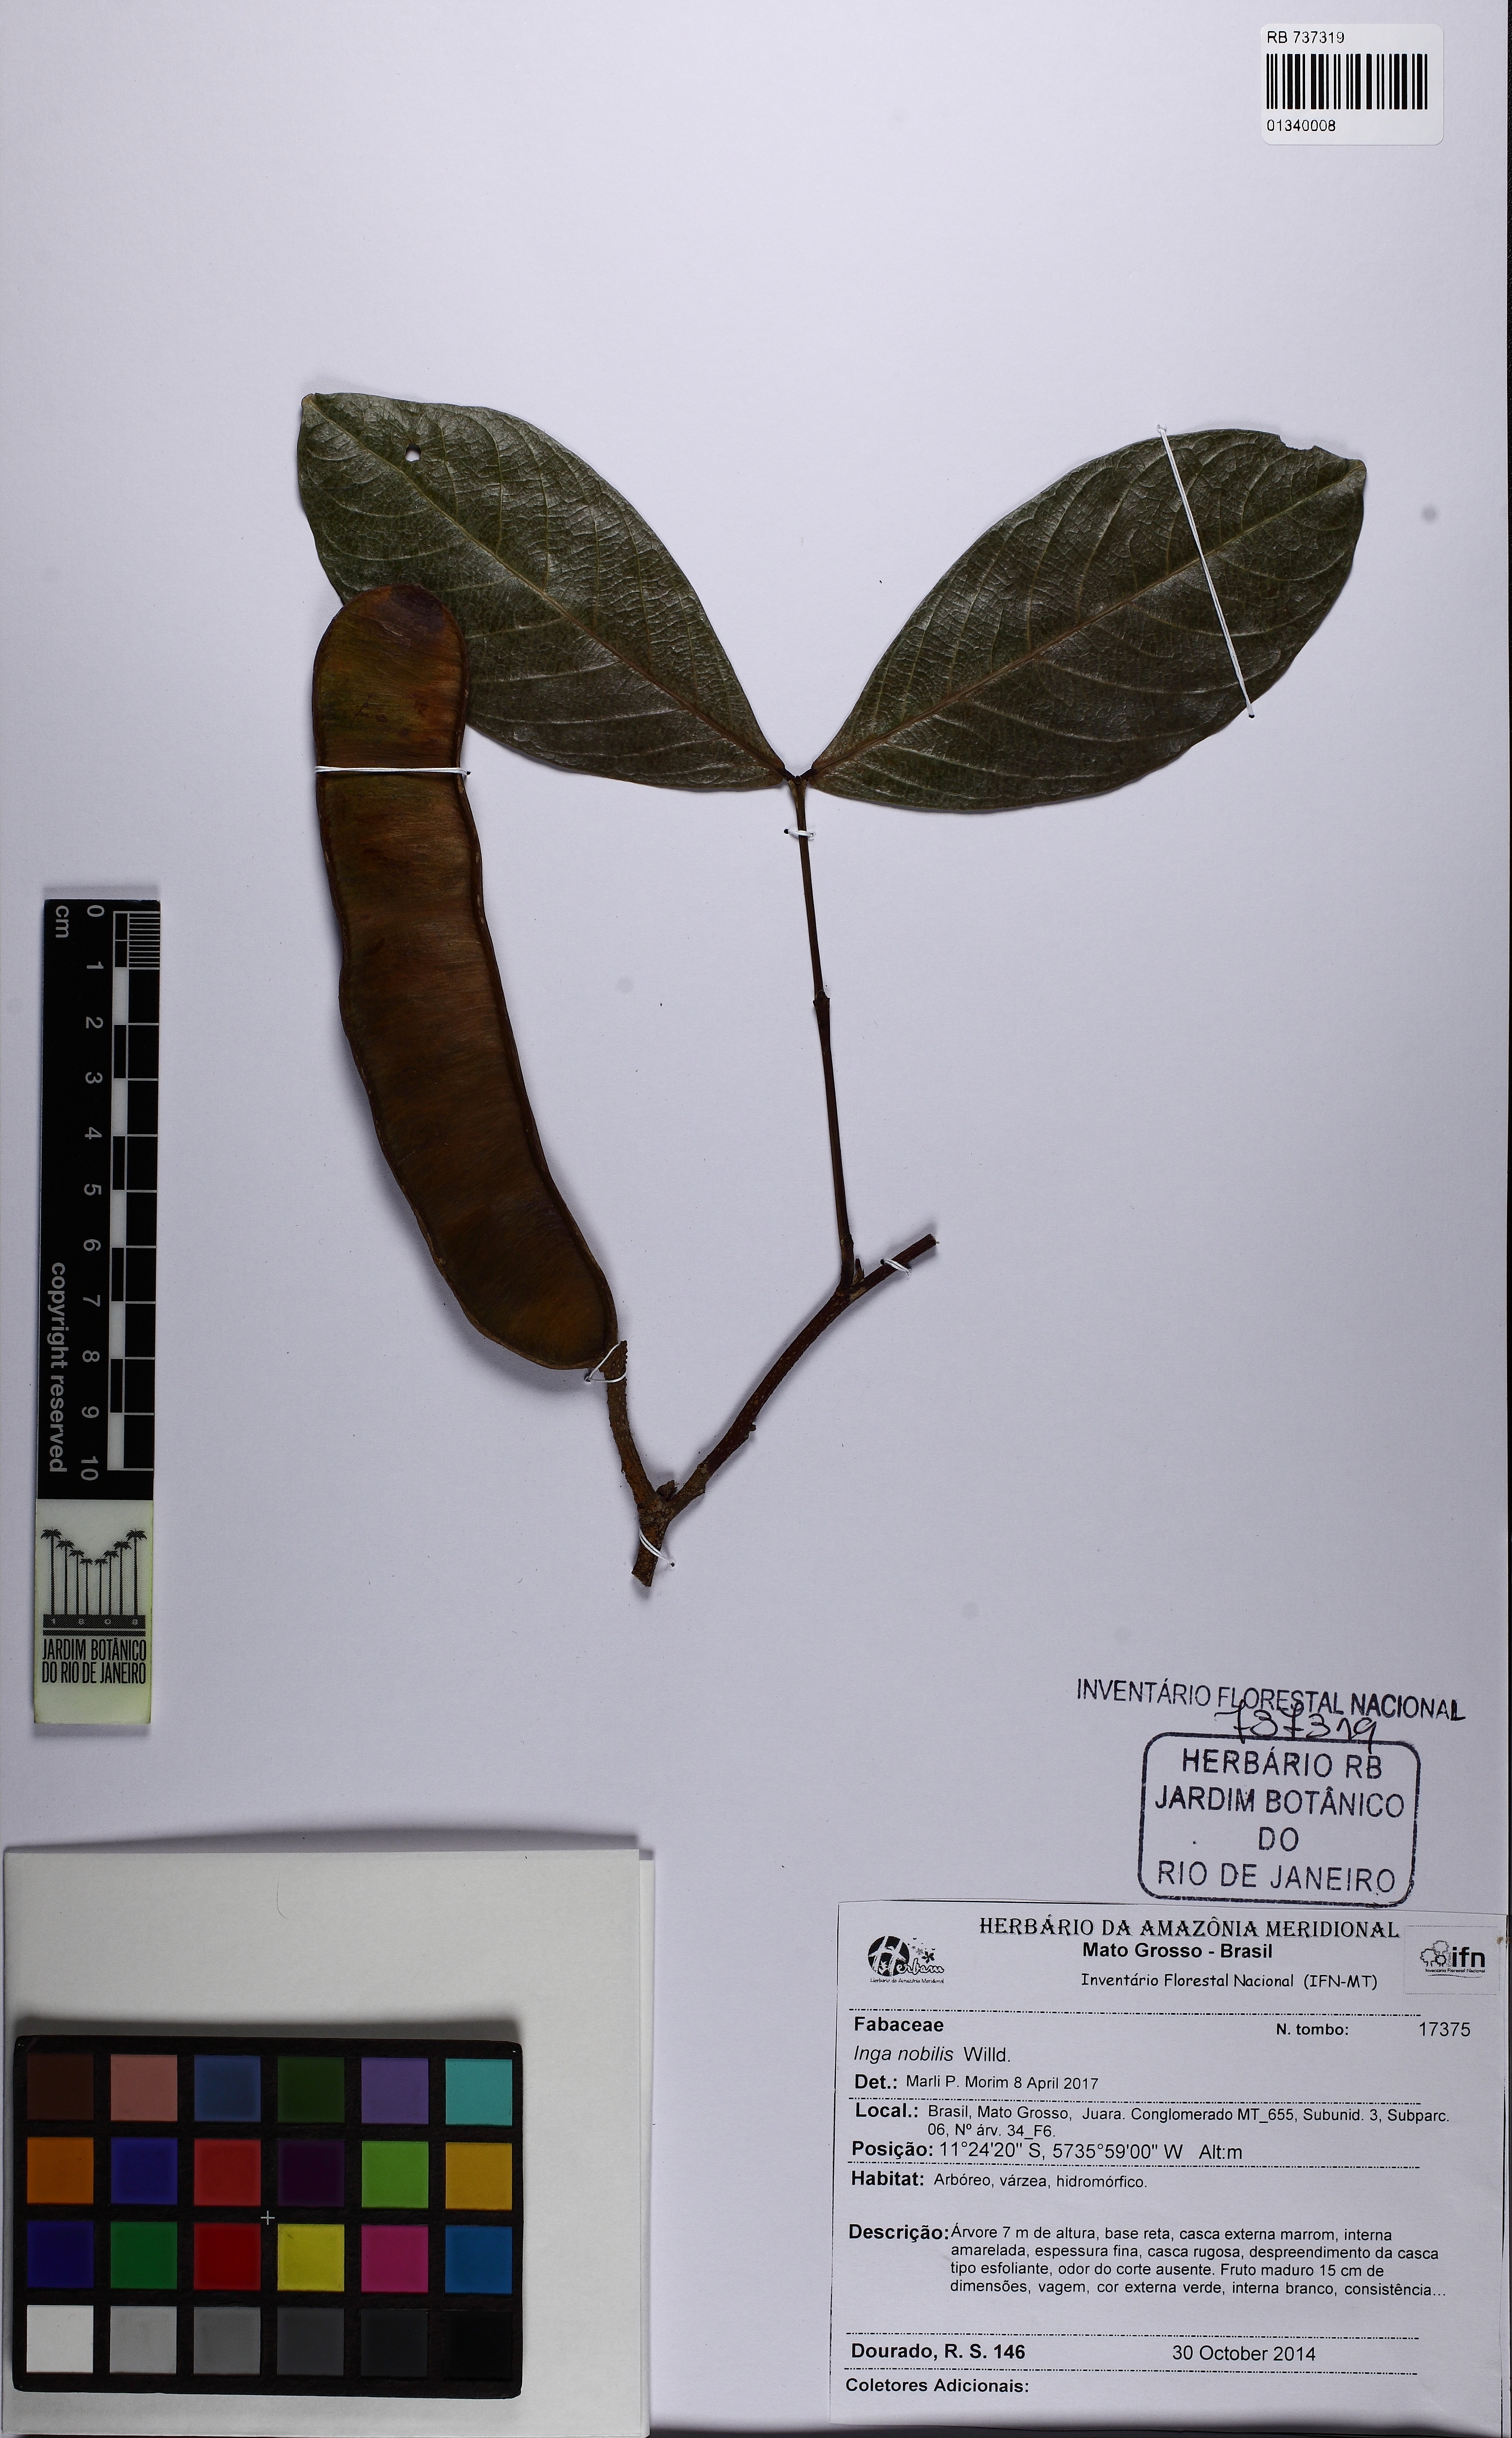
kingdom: Plantae
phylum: Tracheophyta
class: Magnoliopsida
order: Fabales
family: Fabaceae
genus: Inga
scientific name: Inga nobilis
